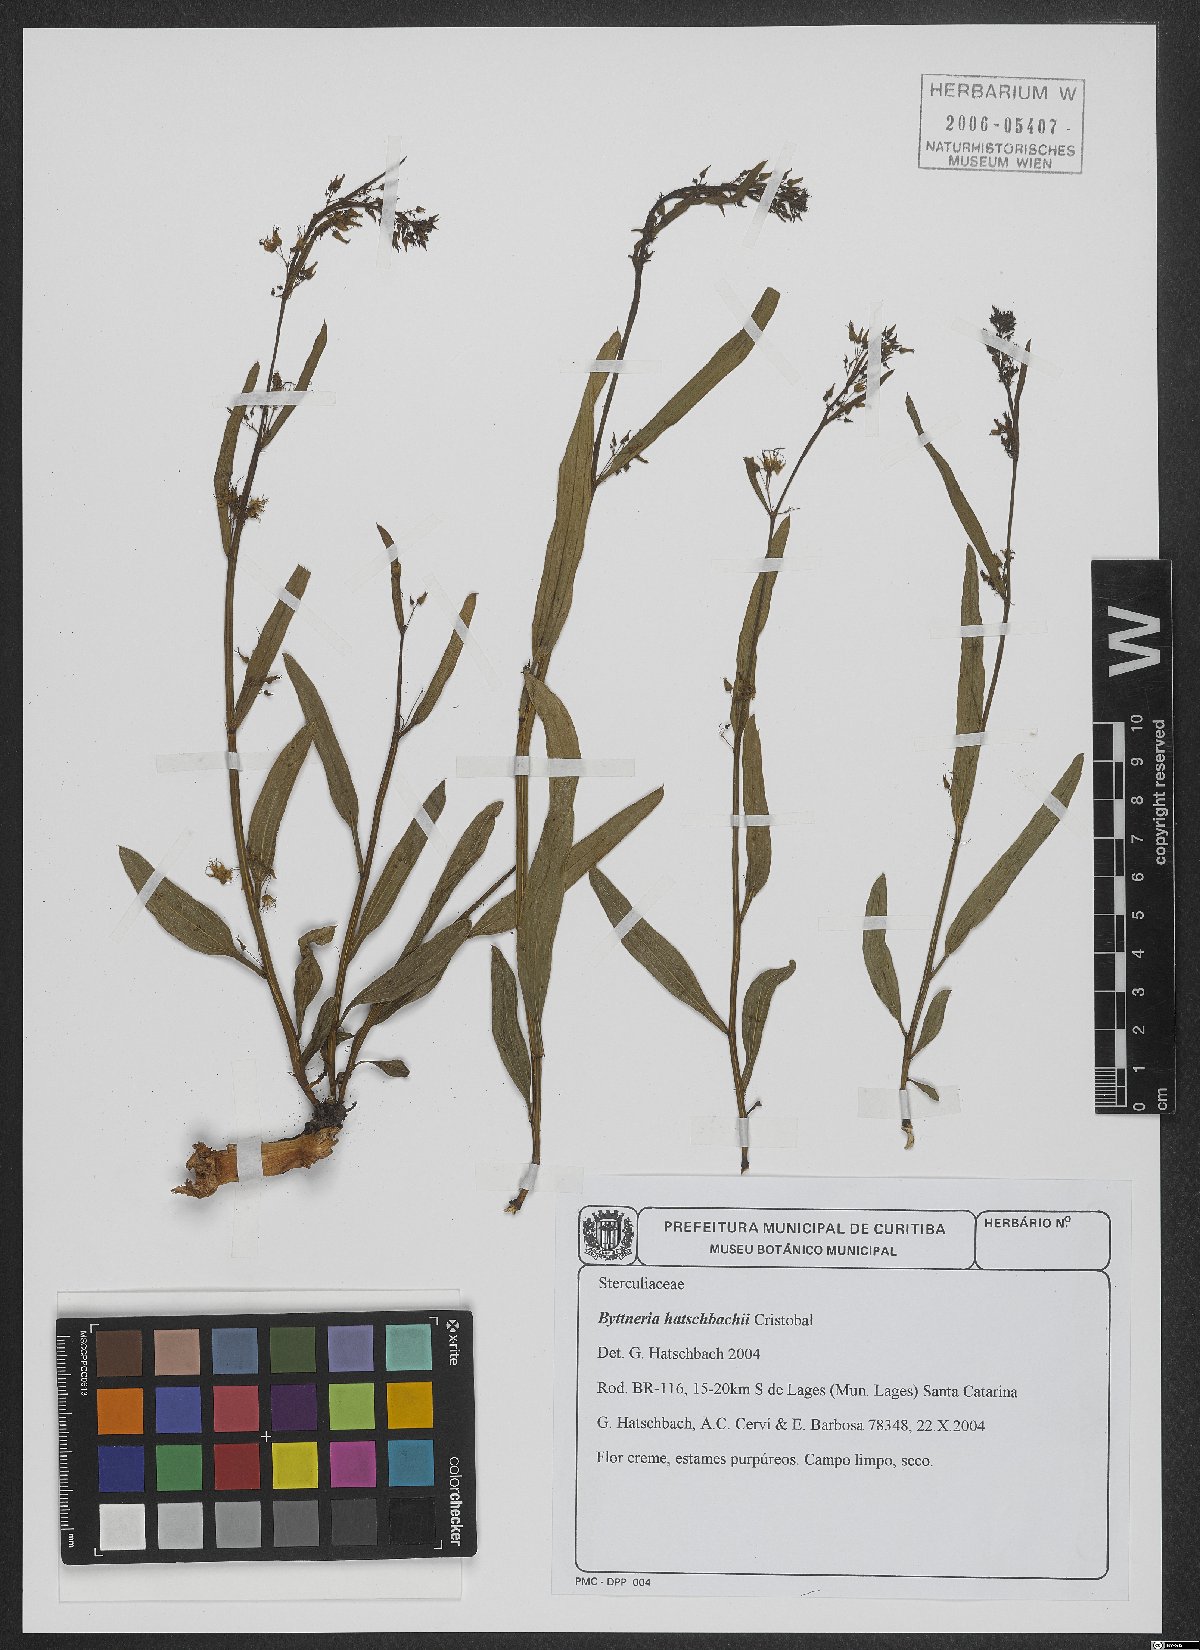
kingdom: Plantae
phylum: Tracheophyta
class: Magnoliopsida
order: Malvales
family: Malvaceae
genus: Byttneria
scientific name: Byttneria hatschbachii
